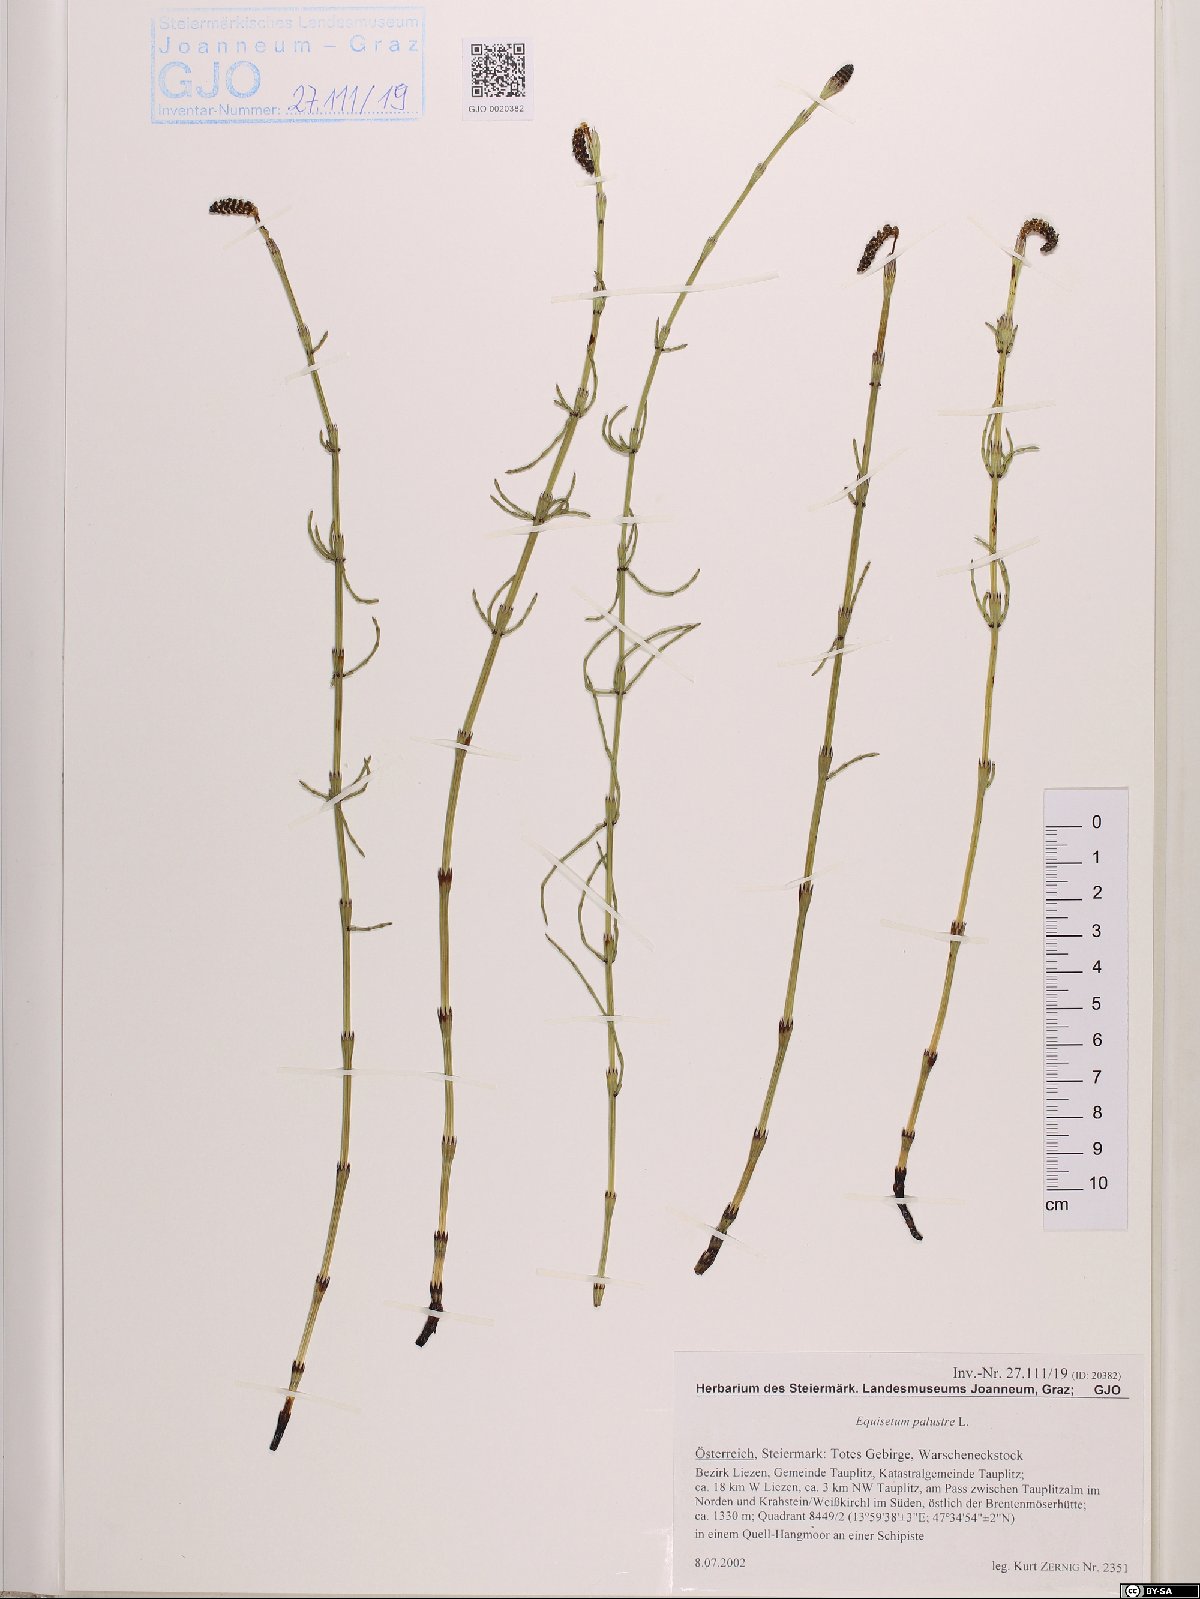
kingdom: Plantae
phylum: Tracheophyta
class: Polypodiopsida
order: Equisetales
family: Equisetaceae
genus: Equisetum
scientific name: Equisetum palustre
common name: Marsh horsetail
